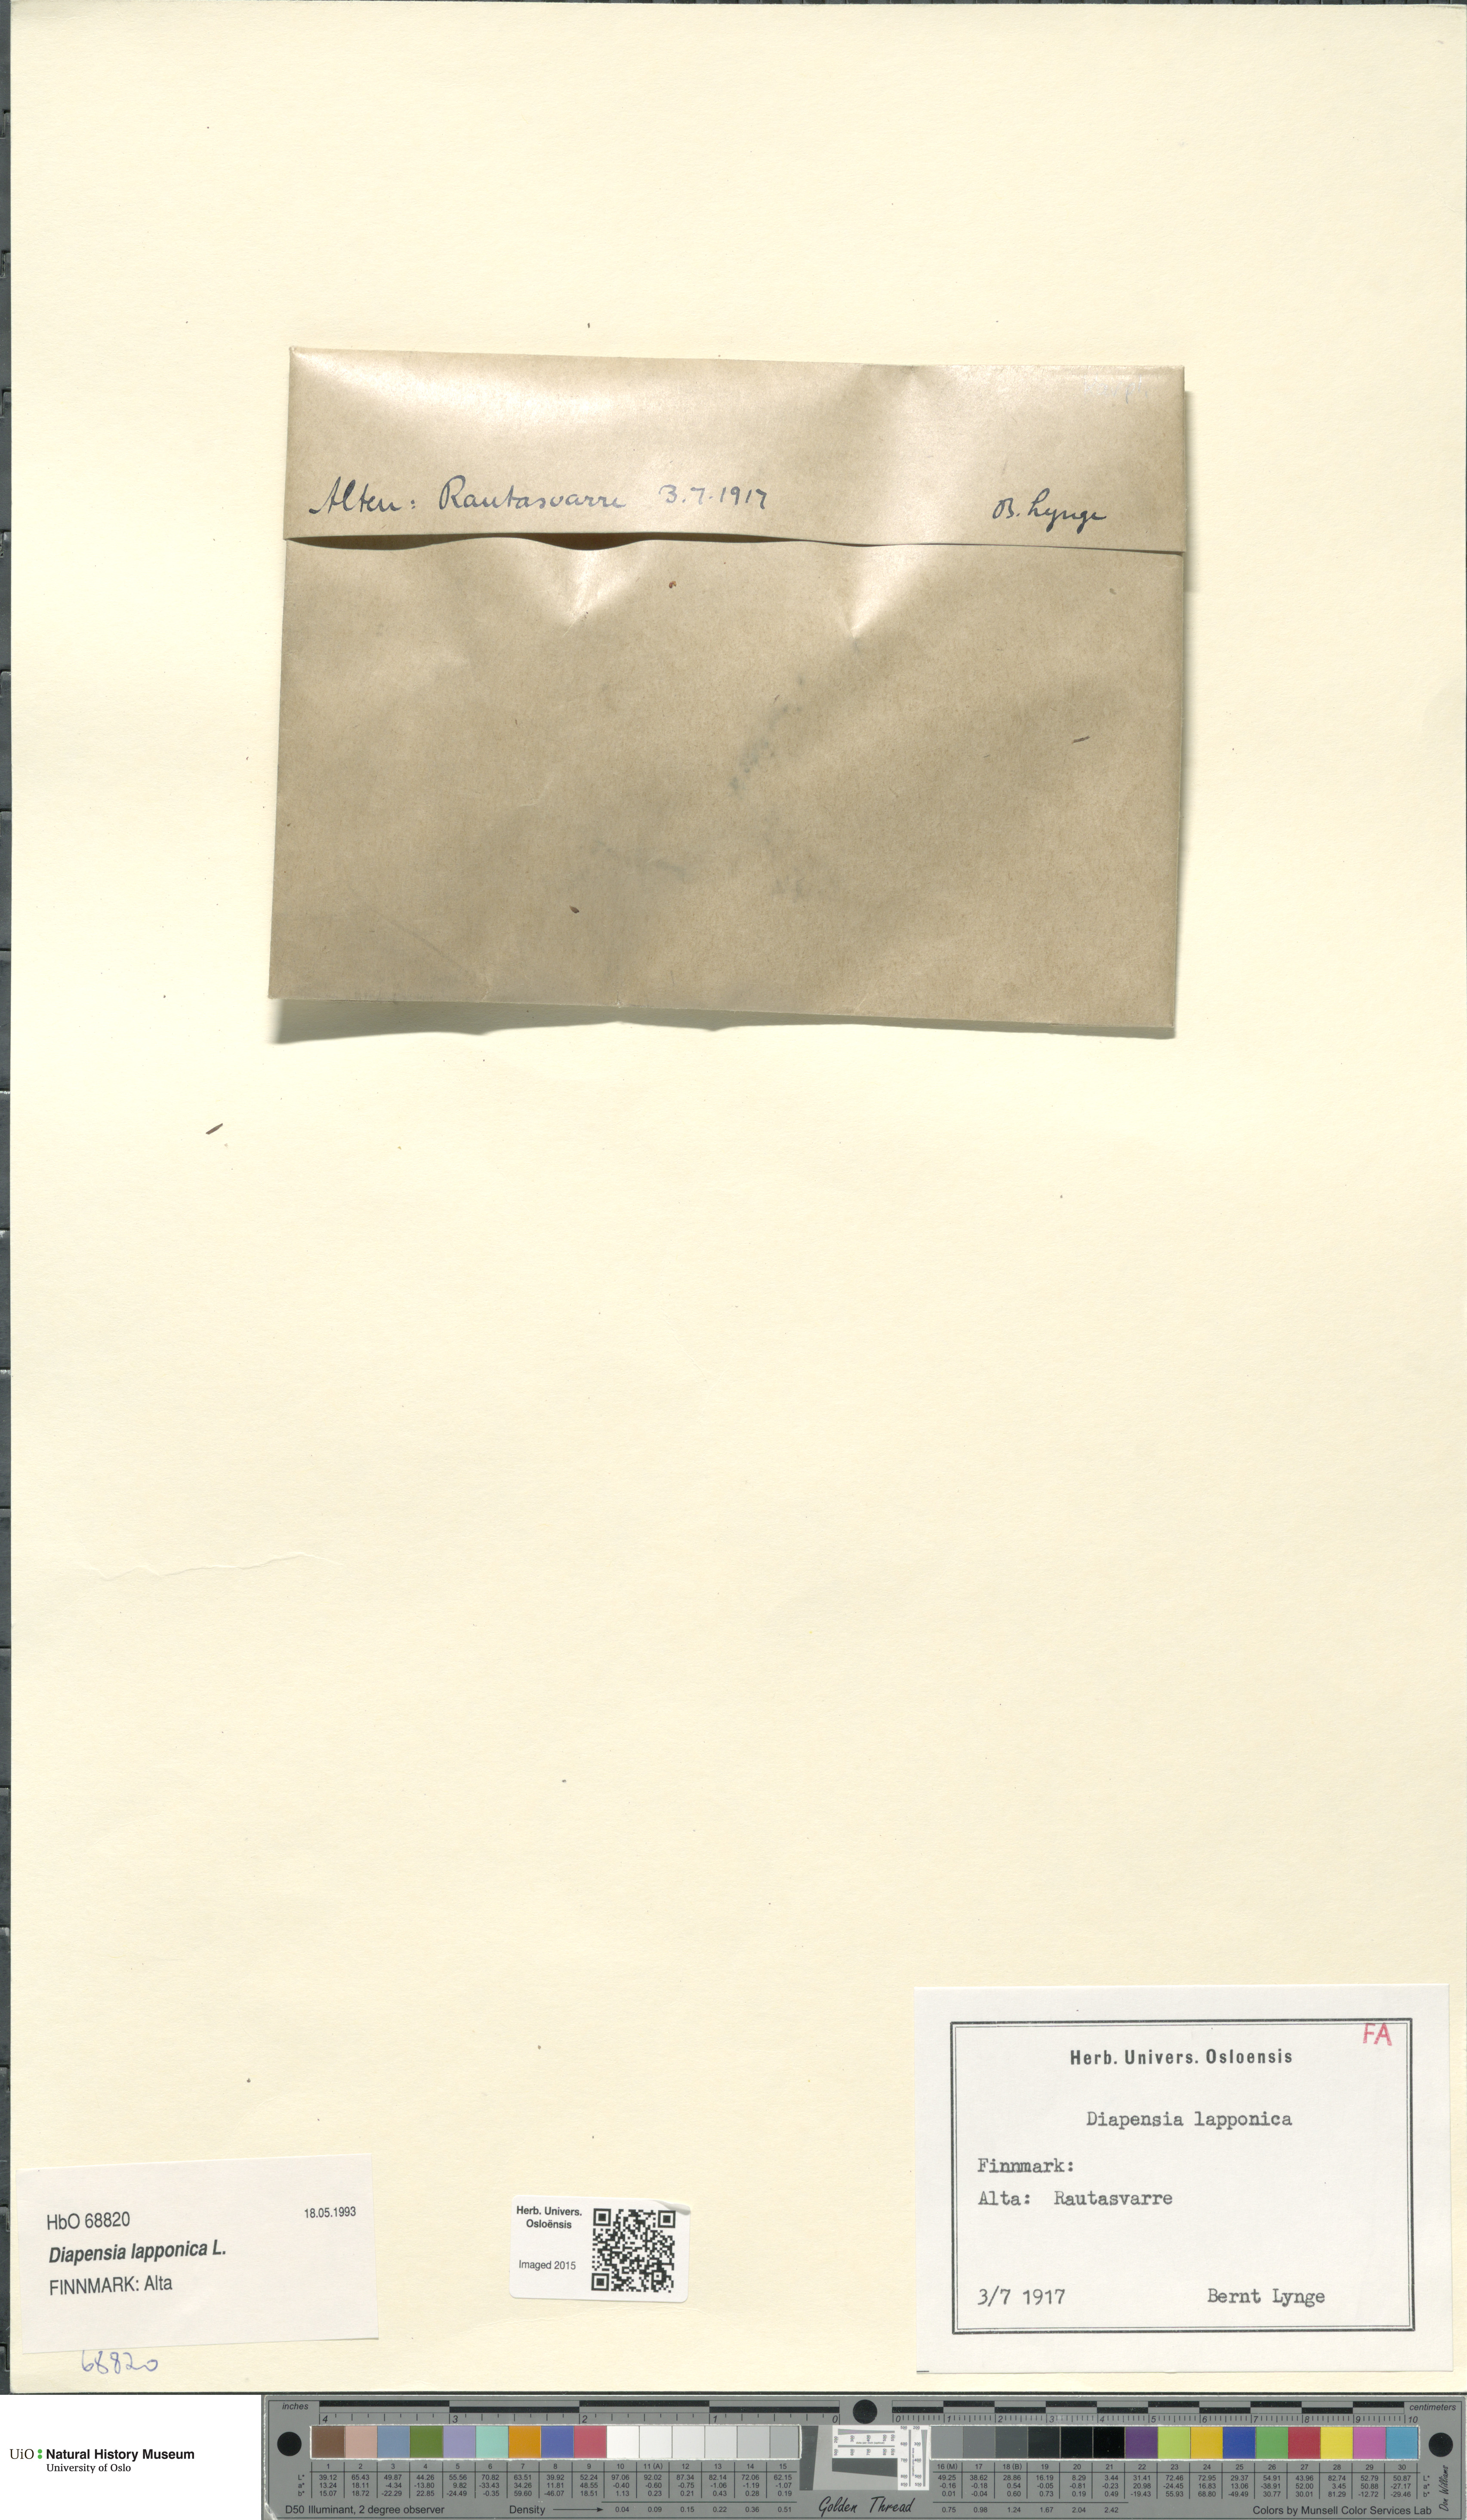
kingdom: Plantae
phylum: Tracheophyta
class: Magnoliopsida
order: Ericales
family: Diapensiaceae
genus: Diapensia
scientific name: Diapensia lapponica
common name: Diapensia
